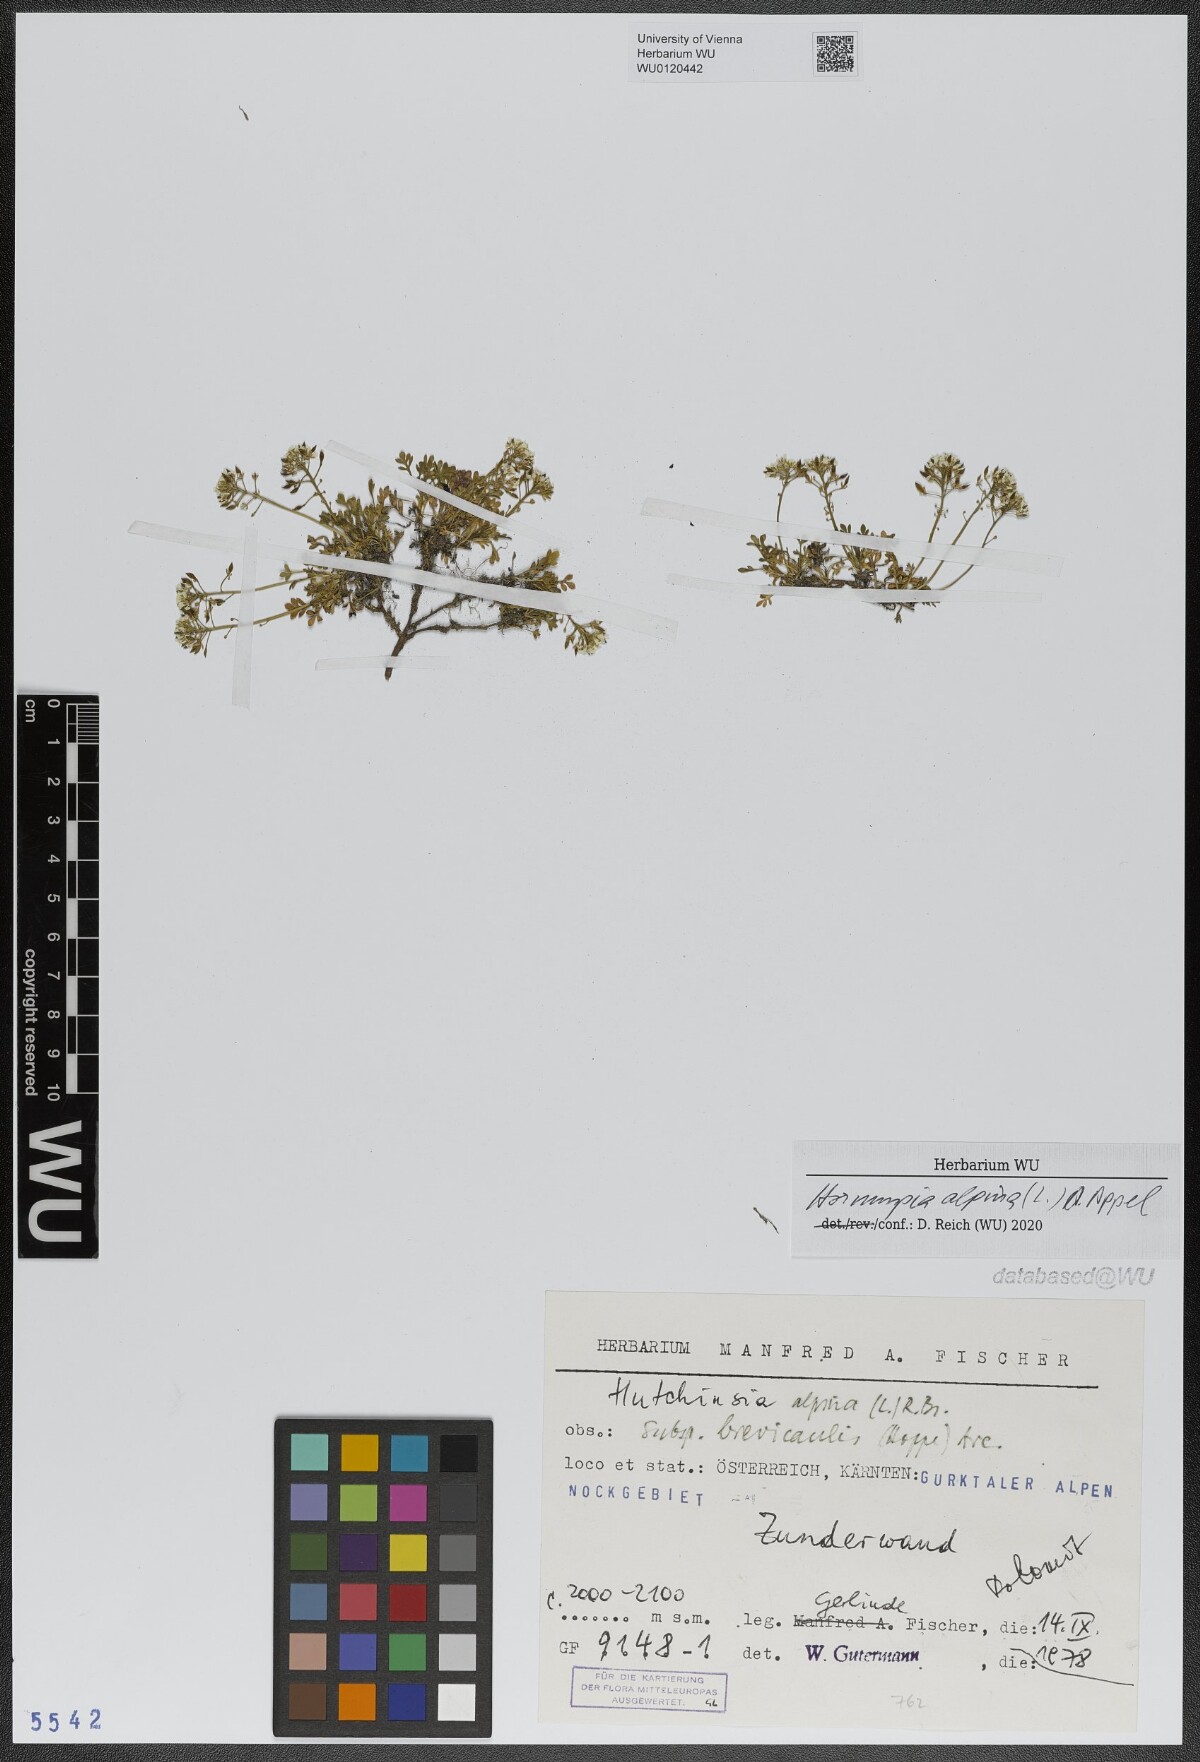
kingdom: Plantae
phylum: Tracheophyta
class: Magnoliopsida
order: Brassicales
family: Brassicaceae
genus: Hornungia
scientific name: Hornungia alpina
